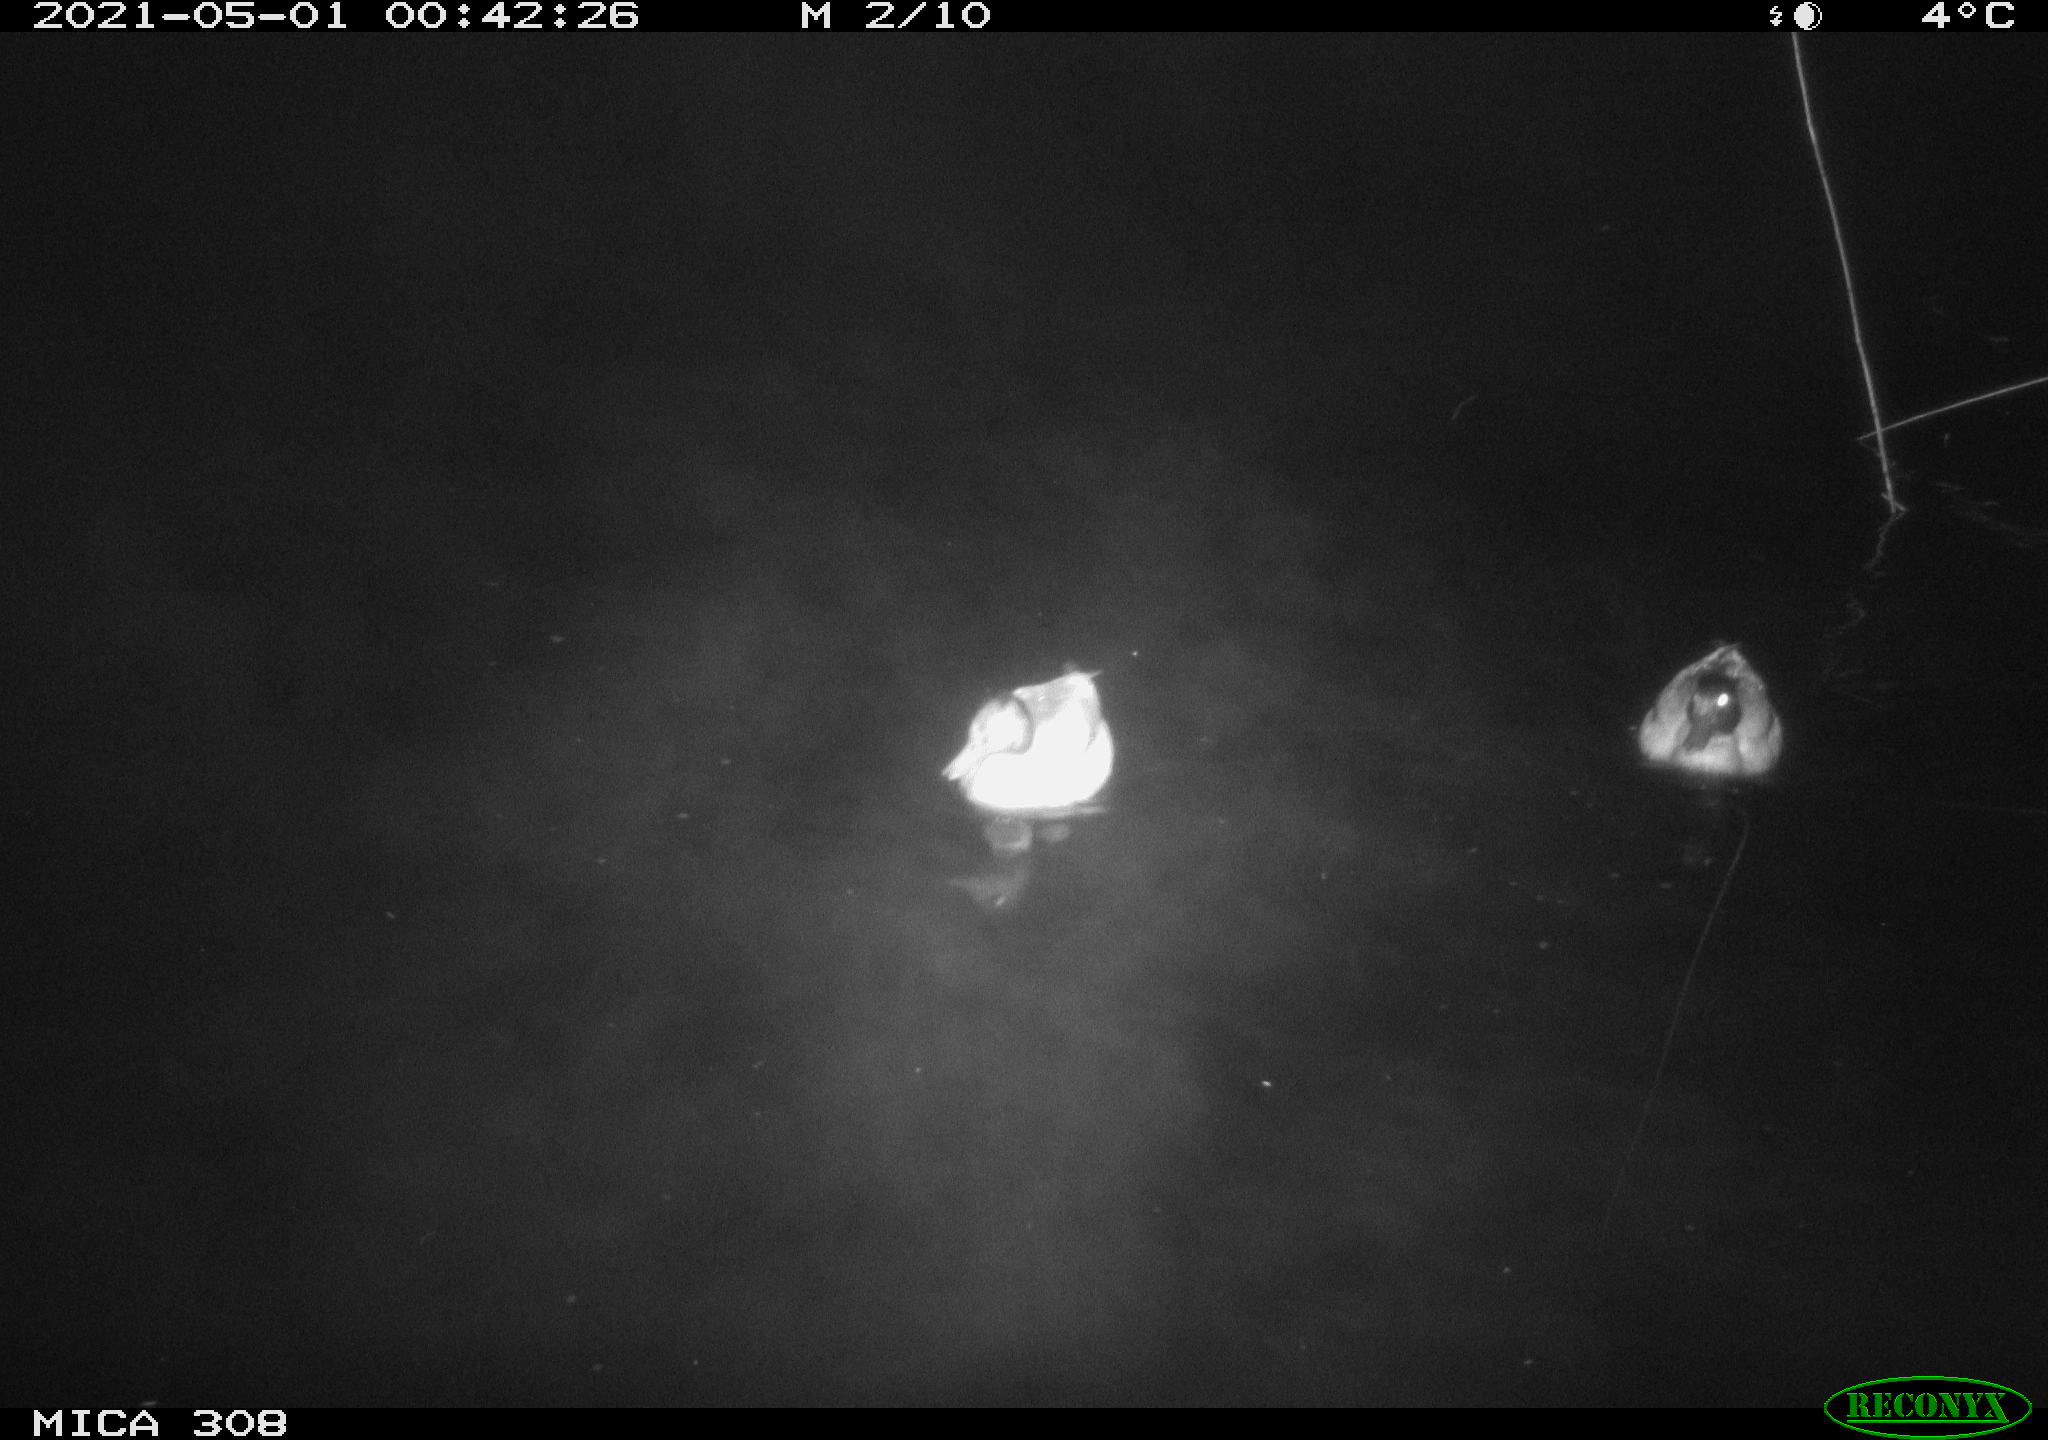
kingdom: Animalia
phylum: Chordata
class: Aves
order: Anseriformes
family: Anatidae
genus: Anas
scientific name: Anas platyrhynchos
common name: Mallard
